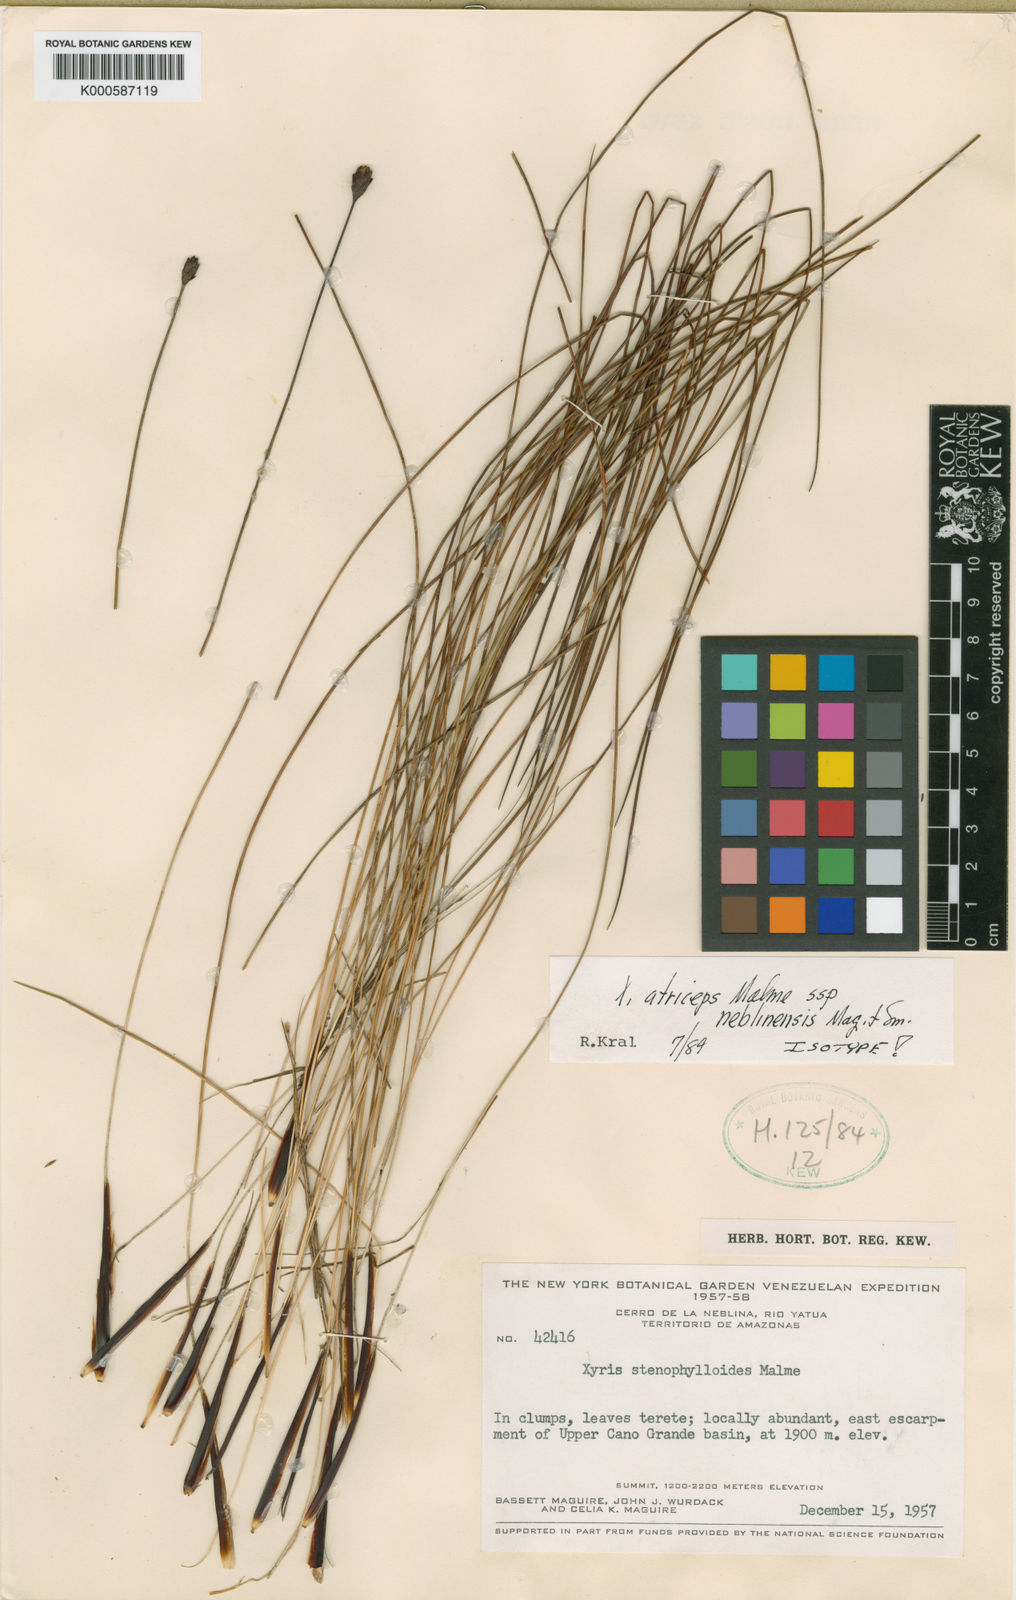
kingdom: Plantae
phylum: Tracheophyta
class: Liliopsida
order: Poales
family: Xyridaceae
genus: Xyris
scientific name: Xyris atriceps
